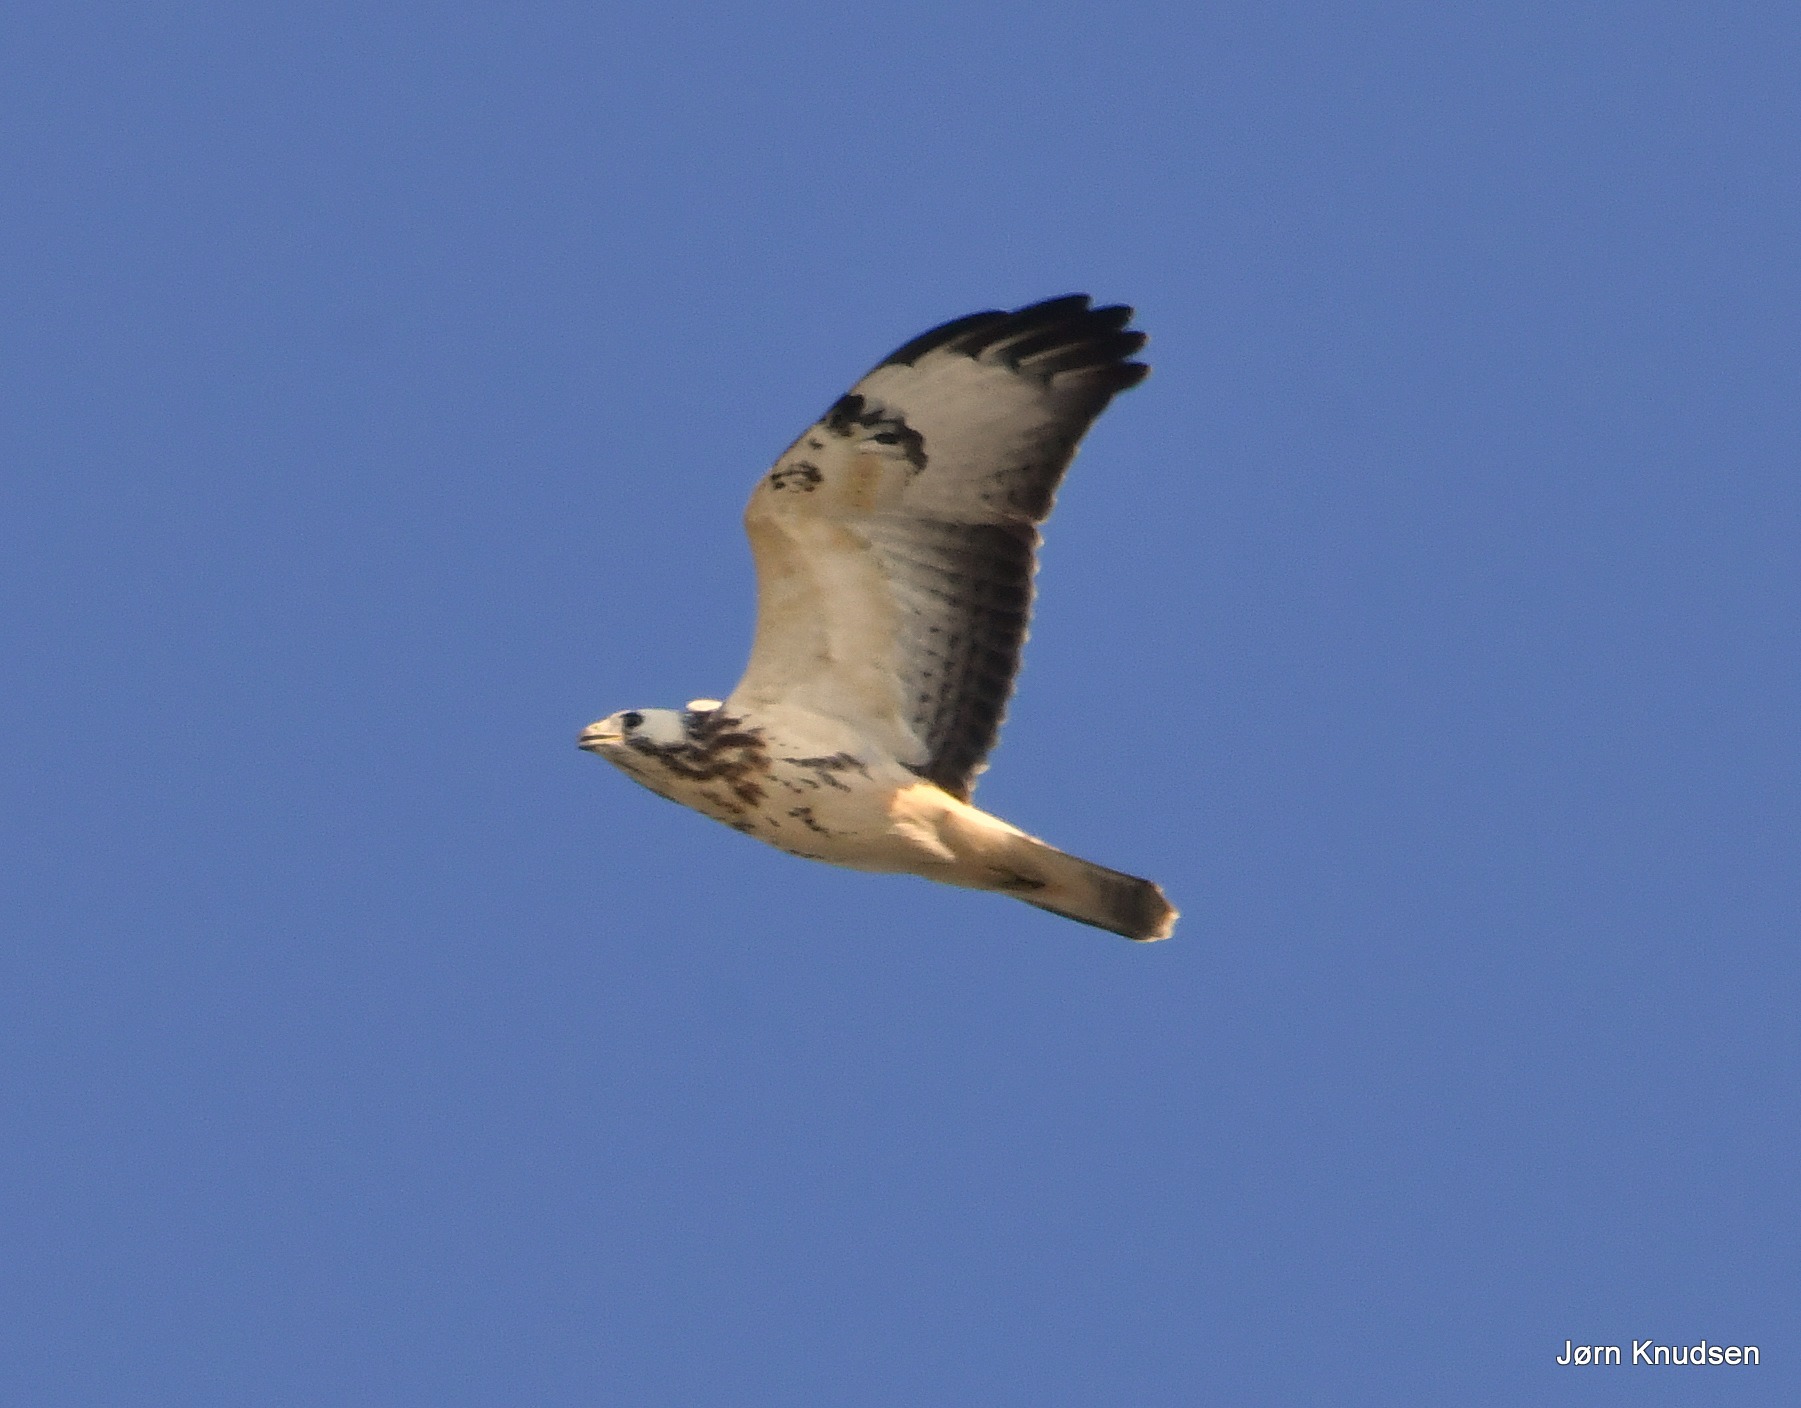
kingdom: Animalia
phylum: Chordata
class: Aves
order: Accipitriformes
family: Accipitridae
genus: Buteo
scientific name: Buteo buteo
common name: Musvåge
